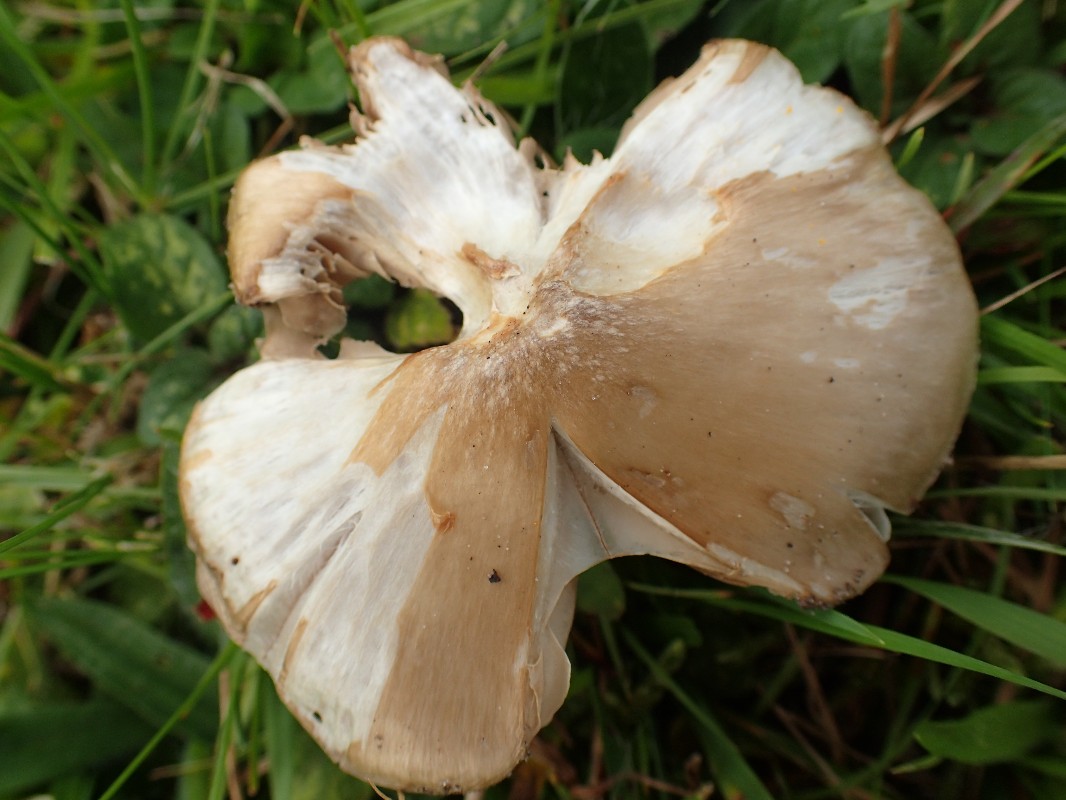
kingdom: Fungi
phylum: Basidiomycota
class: Agaricomycetes
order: Agaricales
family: Entolomataceae
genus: Entoloma
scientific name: Entoloma prunuloides
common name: mel-rødblad
